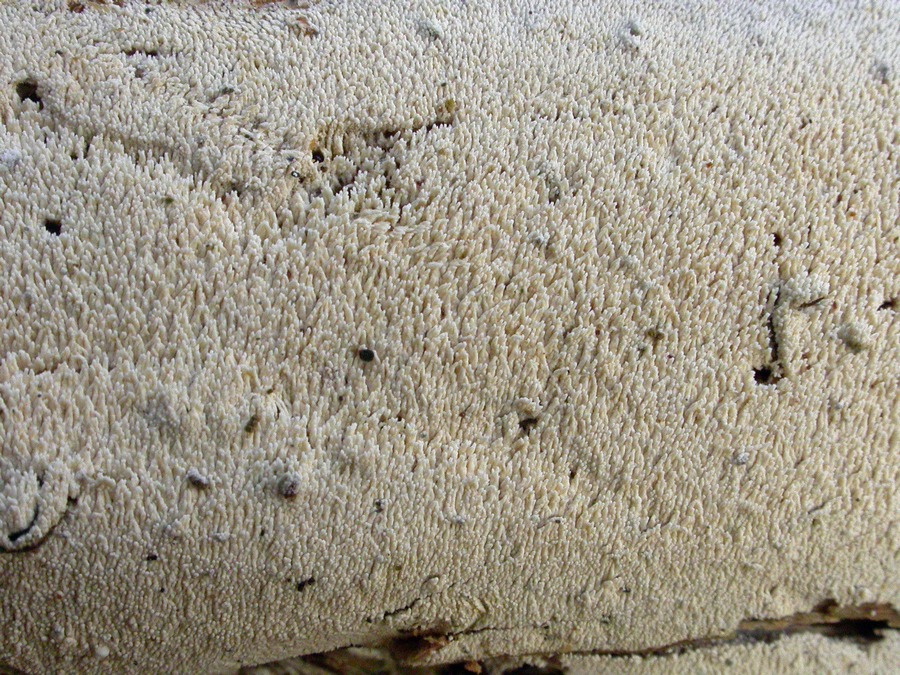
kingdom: Fungi
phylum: Basidiomycota
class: Agaricomycetes
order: Trechisporales
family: Sistotremataceae
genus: Trechispora
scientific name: Trechispora nivea
